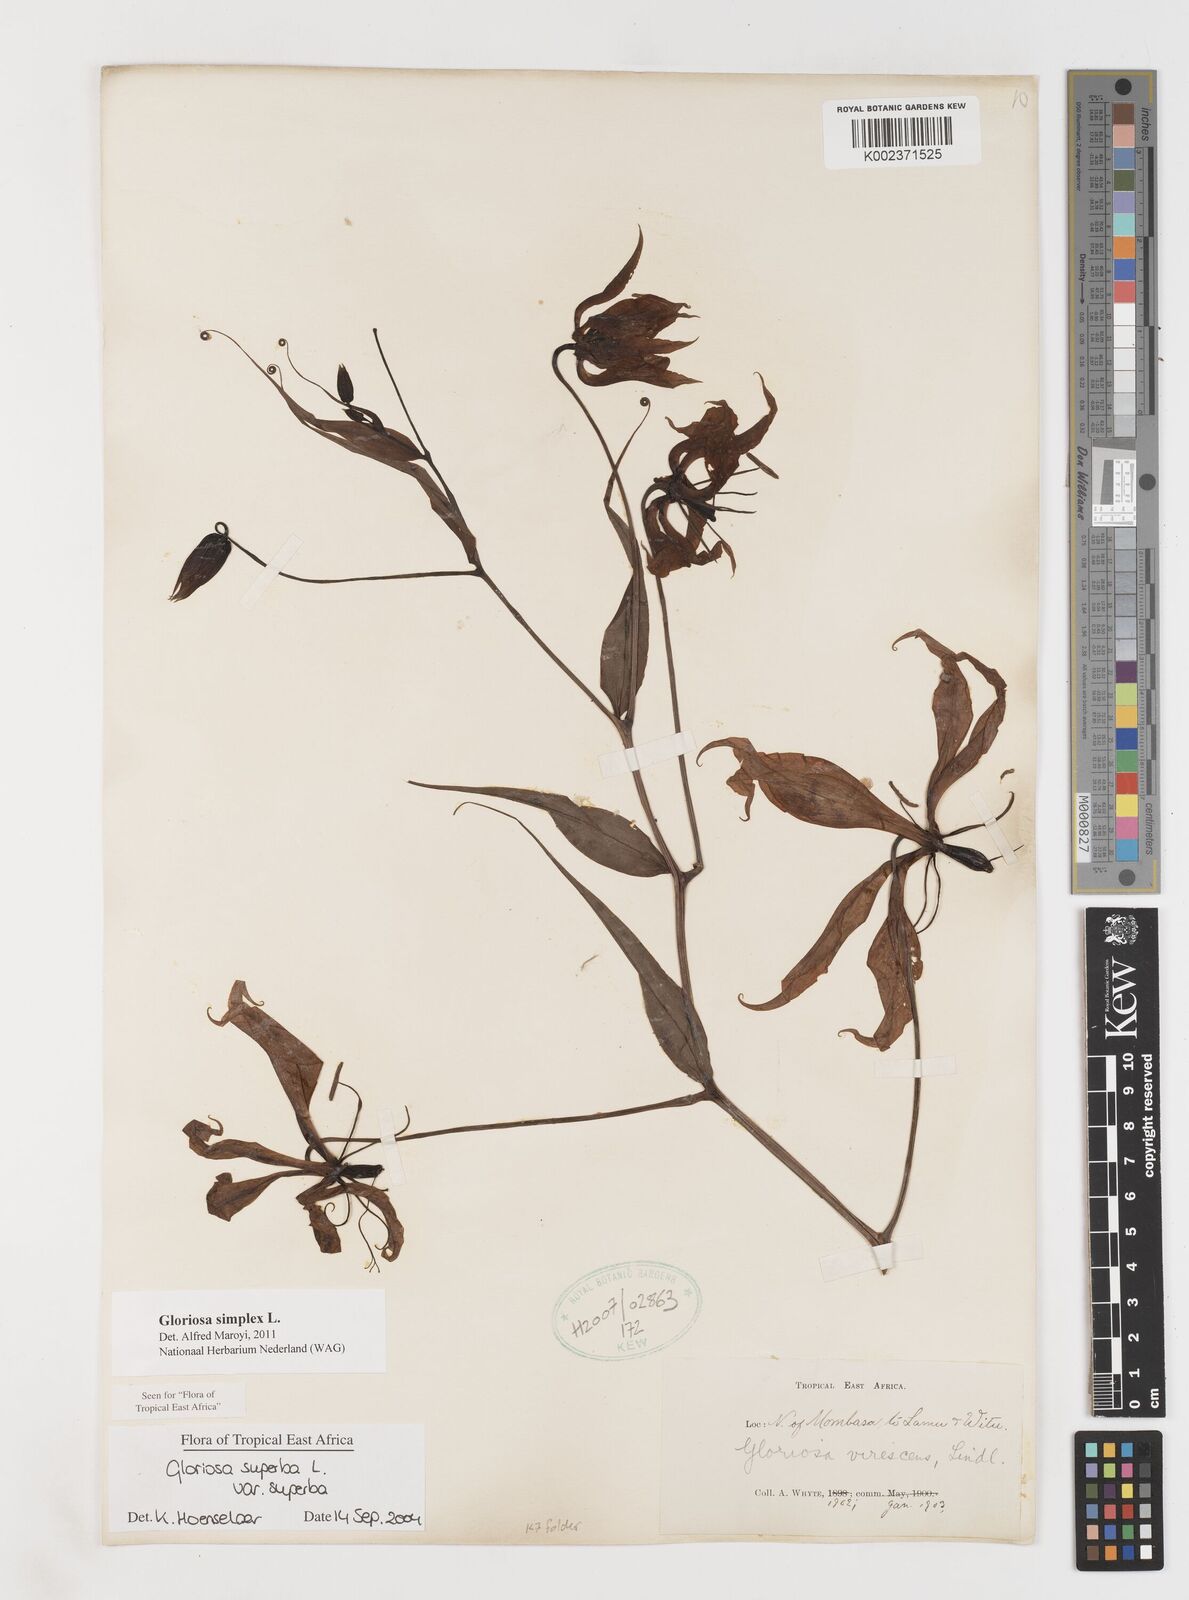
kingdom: Plantae
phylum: Tracheophyta
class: Liliopsida
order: Liliales
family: Colchicaceae
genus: Gloriosa
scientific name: Gloriosa simplex
